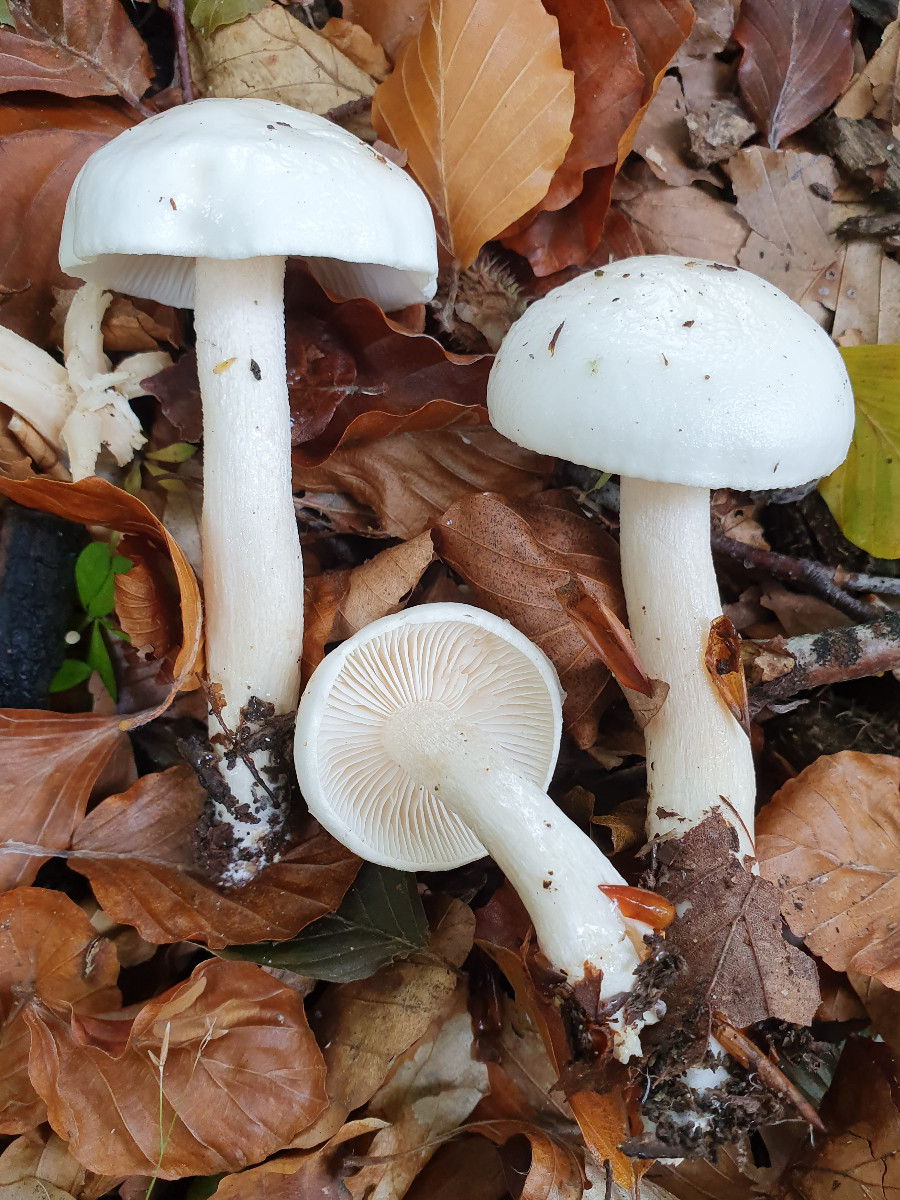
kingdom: Fungi
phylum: Basidiomycota
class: Agaricomycetes
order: Agaricales
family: Hygrophoraceae
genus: Hygrophorus
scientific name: Hygrophorus eburneus
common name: elfenbens-sneglehat
